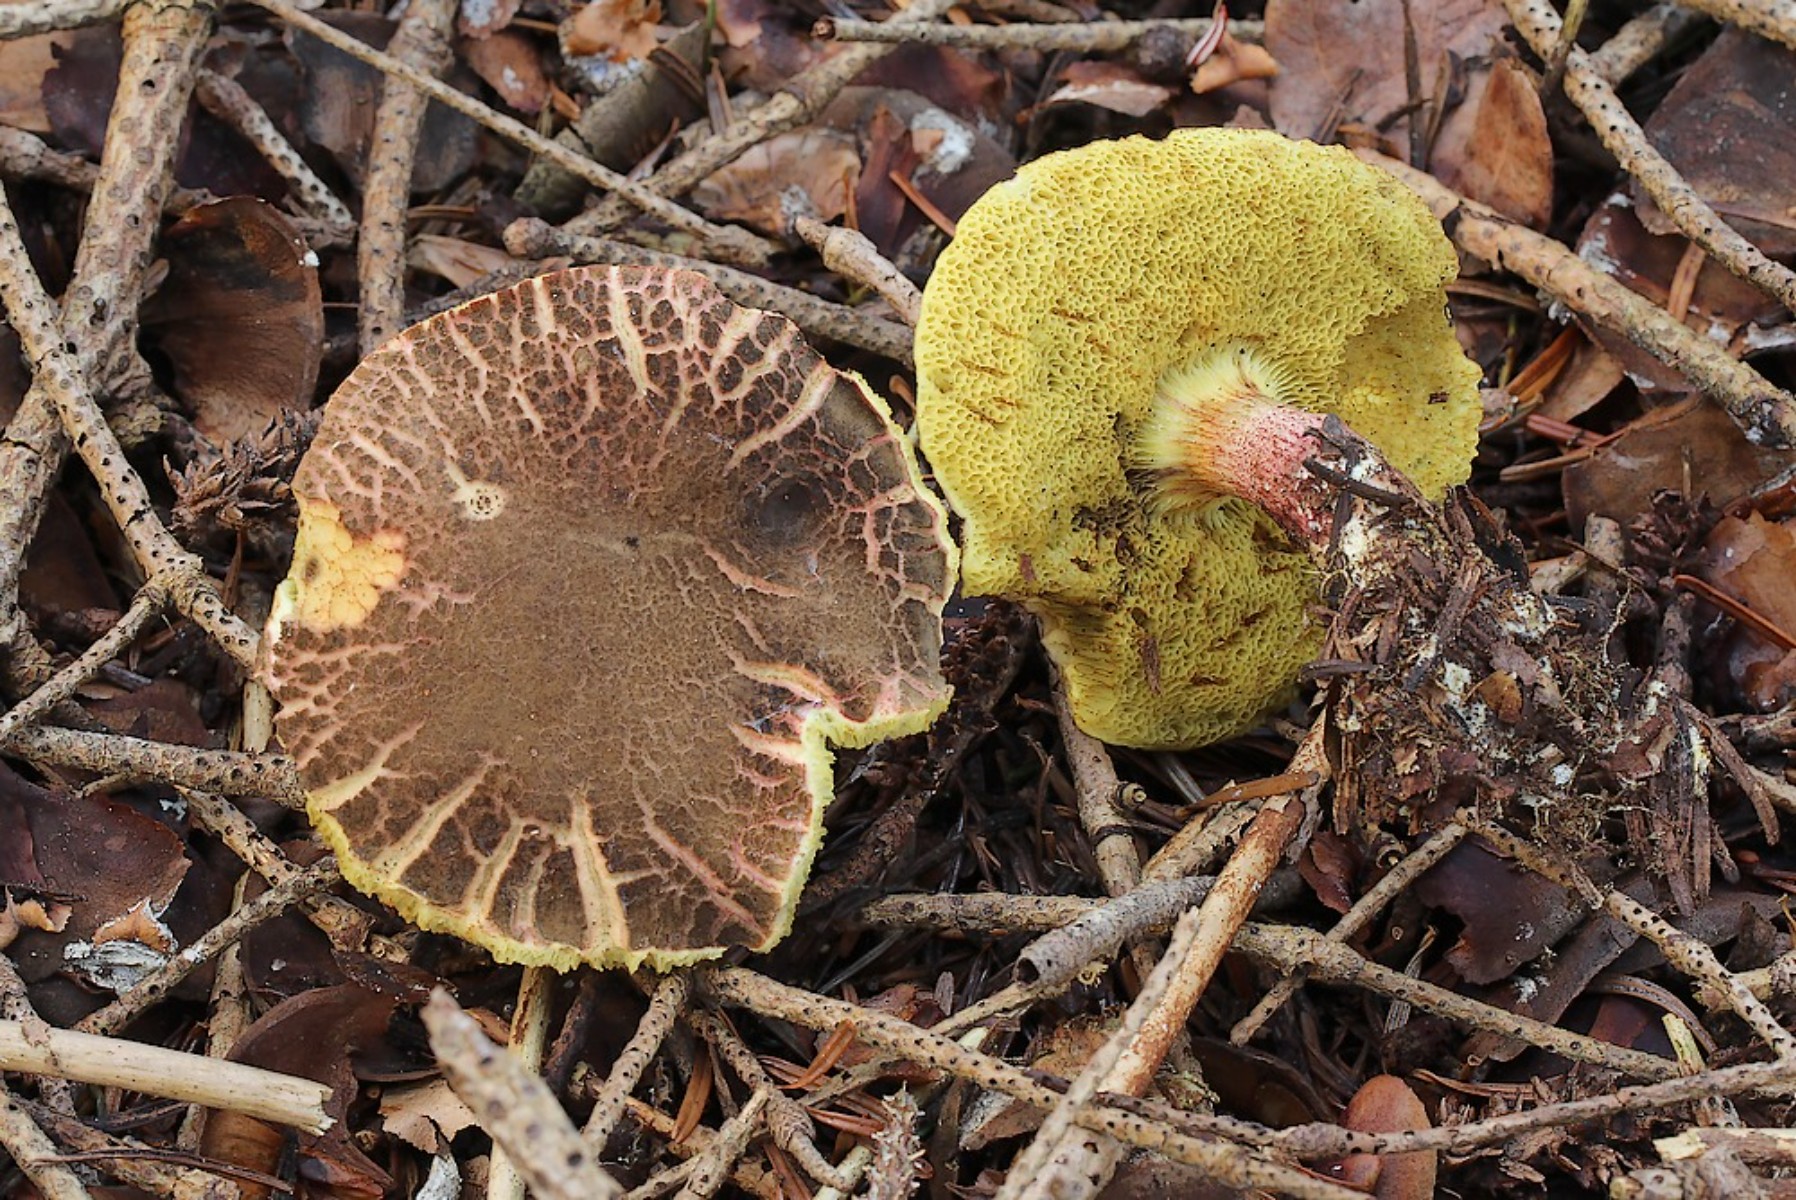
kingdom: Fungi
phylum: Basidiomycota
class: Agaricomycetes
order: Boletales
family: Boletaceae
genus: Xerocomellus
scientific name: Xerocomellus chrysenteron
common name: rødsprukken rørhat
